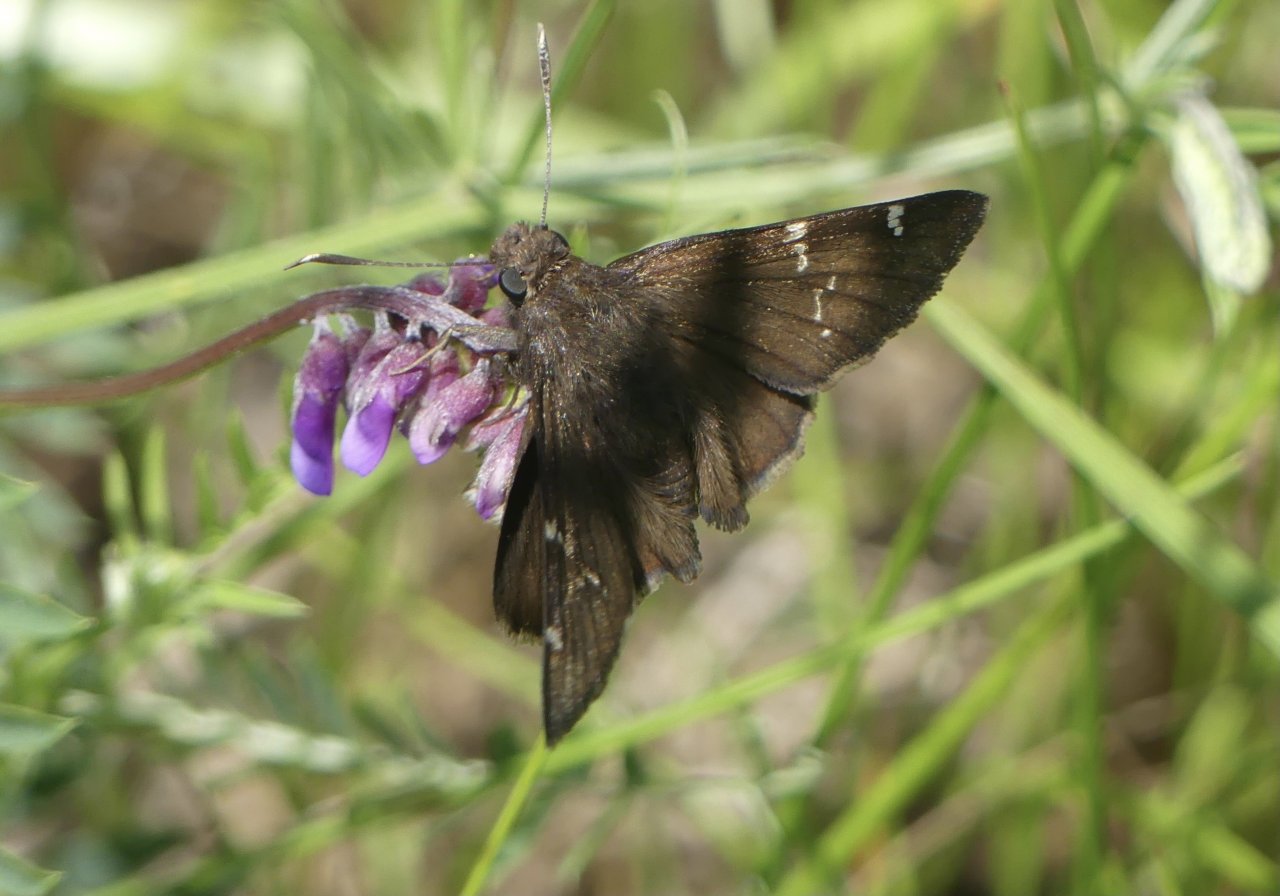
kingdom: Animalia
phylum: Arthropoda
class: Insecta
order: Lepidoptera
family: Hesperiidae
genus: Autochton
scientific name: Autochton
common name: Southern Cloudywing
